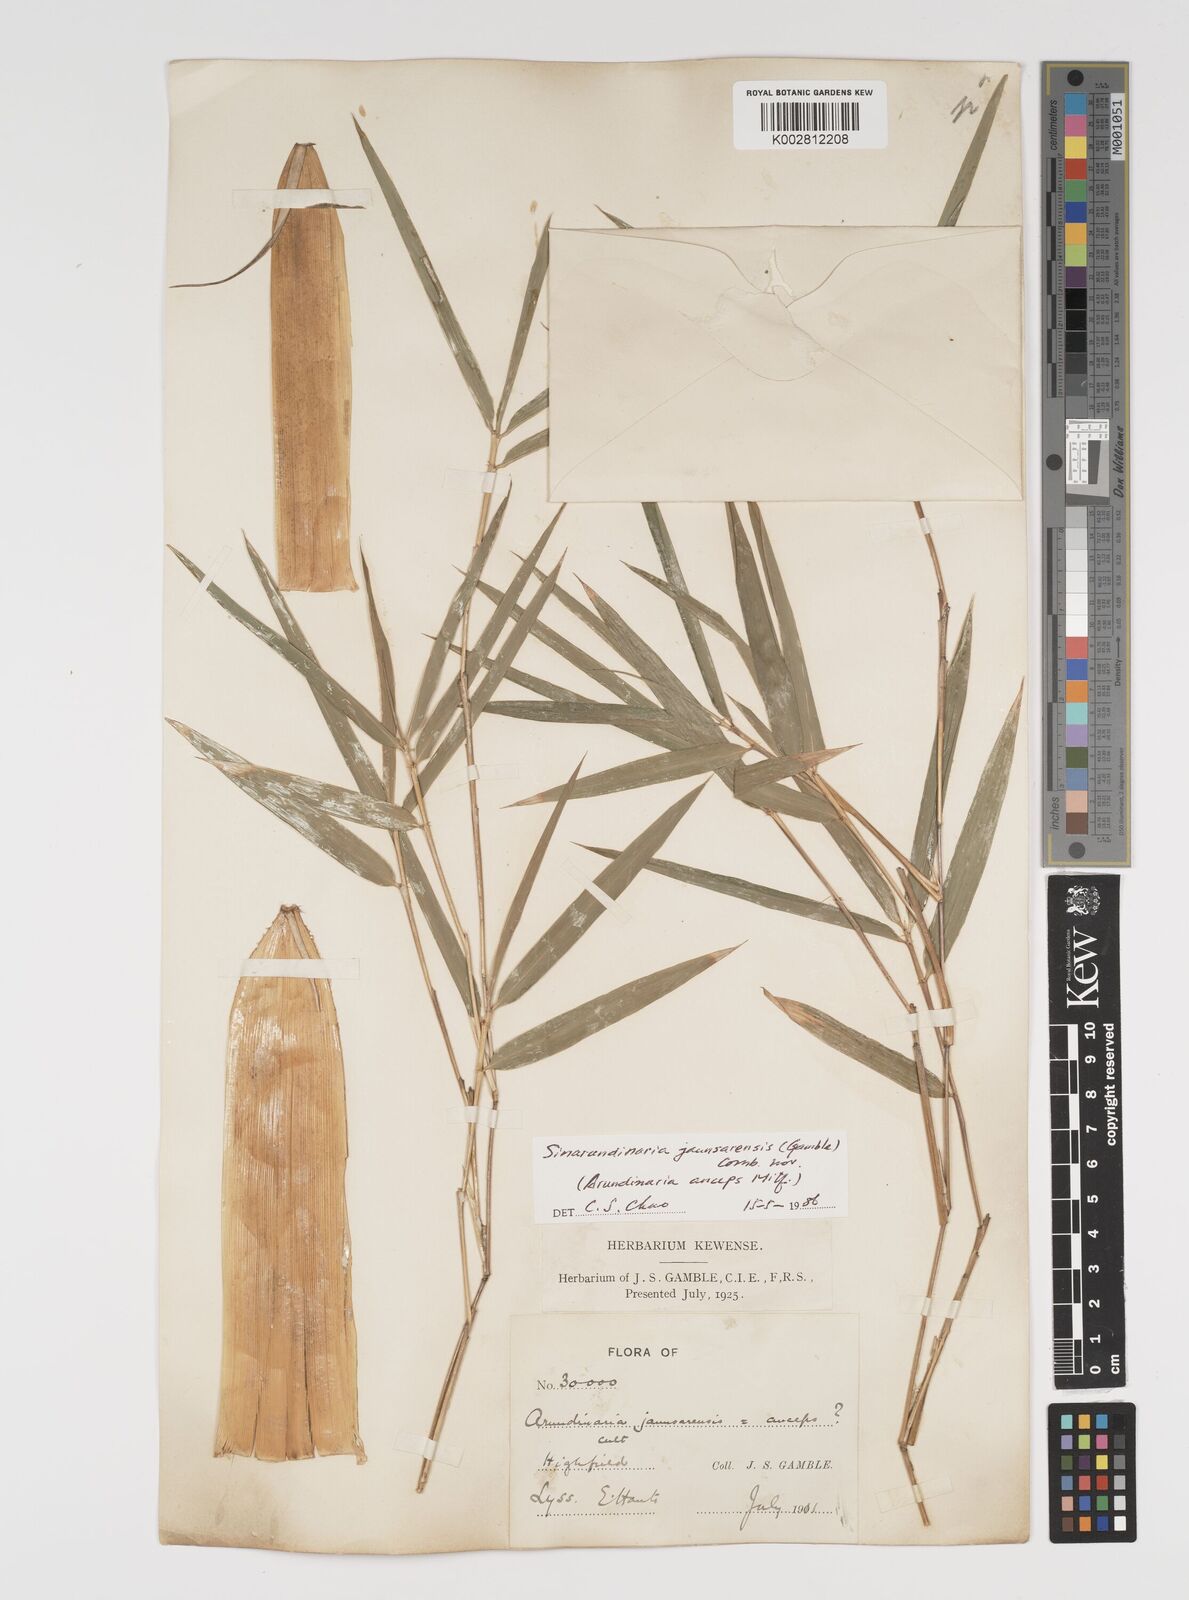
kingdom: Plantae
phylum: Tracheophyta
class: Liliopsida
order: Poales
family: Poaceae
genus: Yushania
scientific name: Yushania anceps
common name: Indian fountain-bamboo
